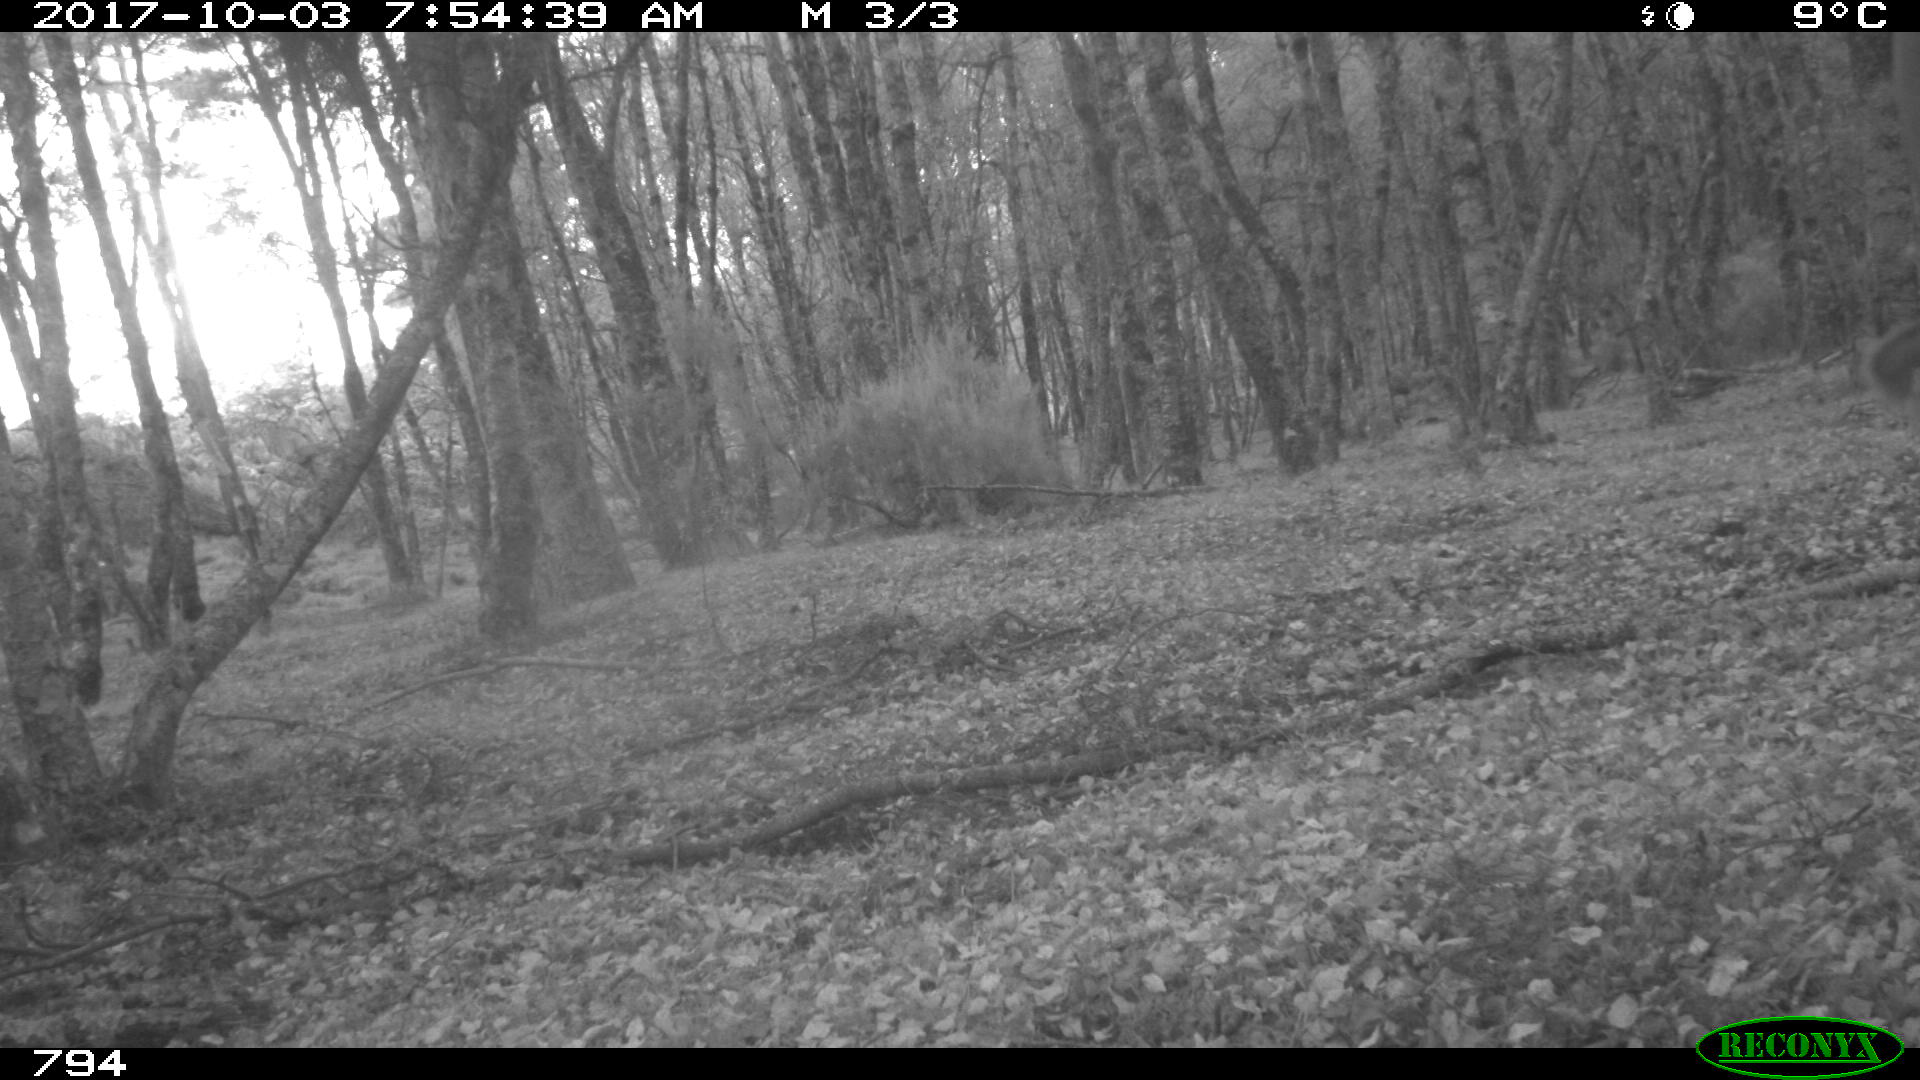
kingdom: Animalia
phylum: Chordata
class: Mammalia
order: Artiodactyla
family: Bovidae
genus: Bos
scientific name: Bos taurus
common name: Domesticated cattle
